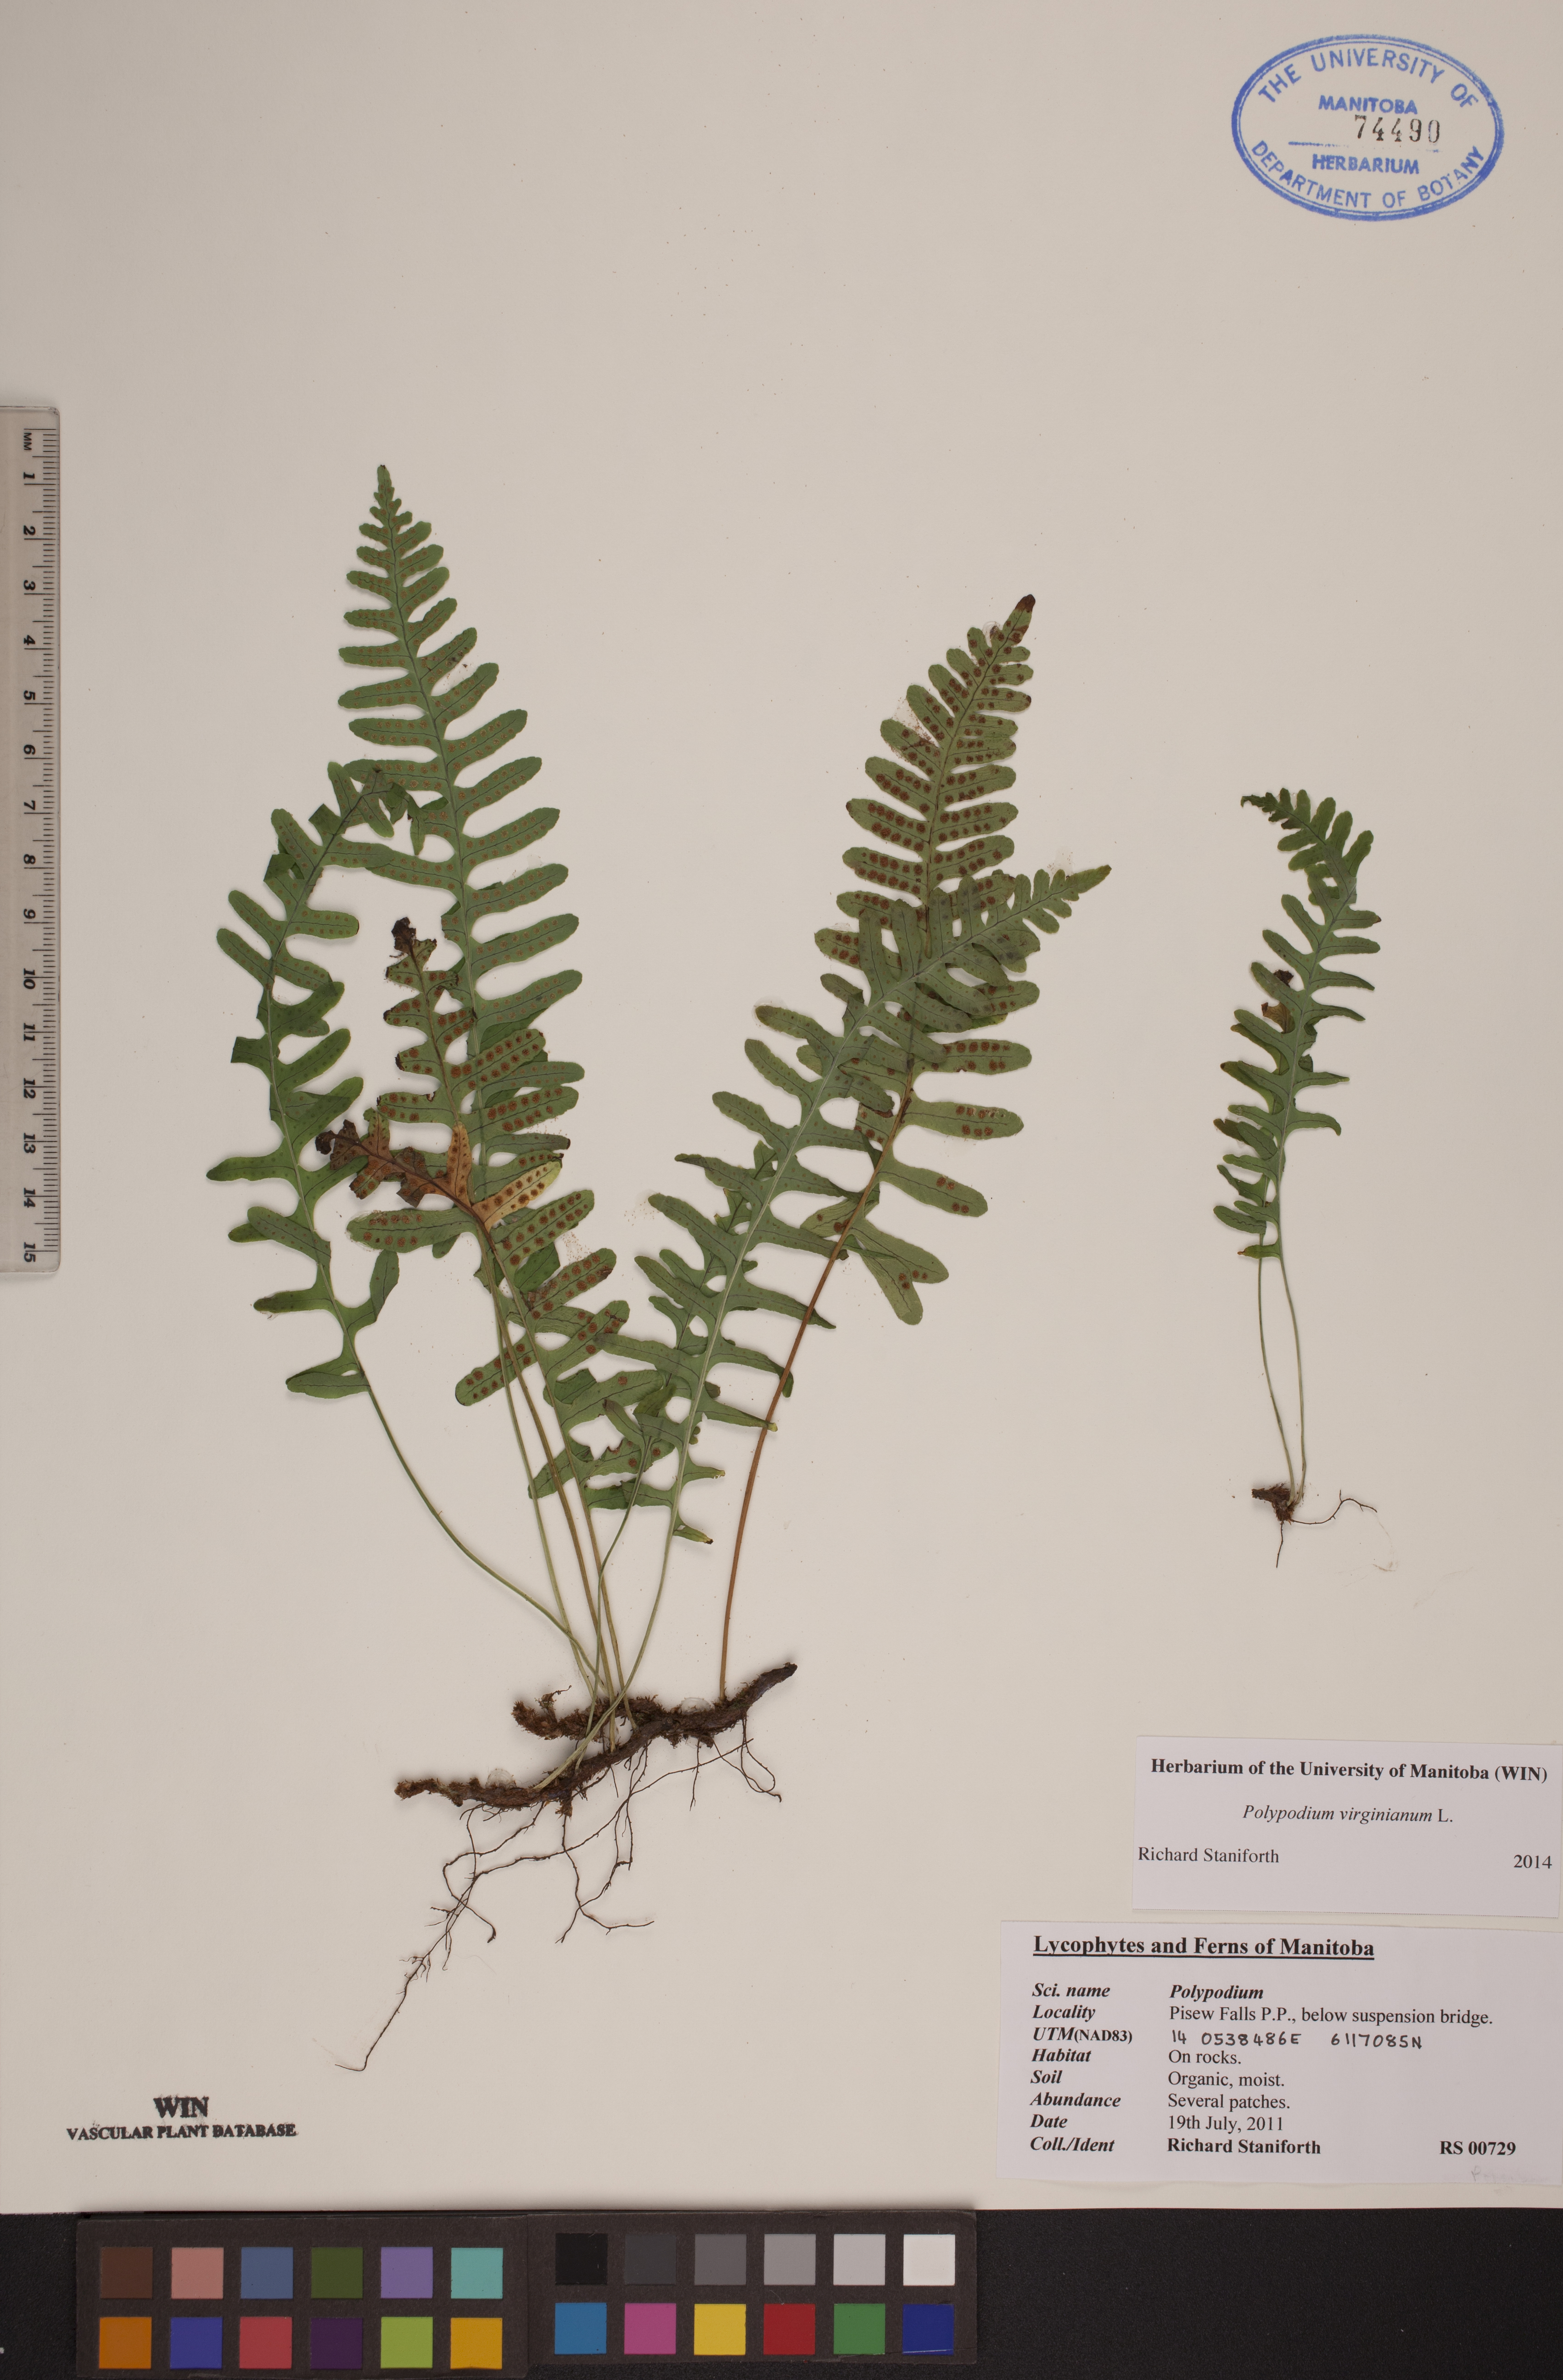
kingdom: Plantae
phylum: Tracheophyta
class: Polypodiopsida
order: Polypodiales
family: Polypodiaceae
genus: Polypodium
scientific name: Polypodium virginianum
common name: American wall fern
